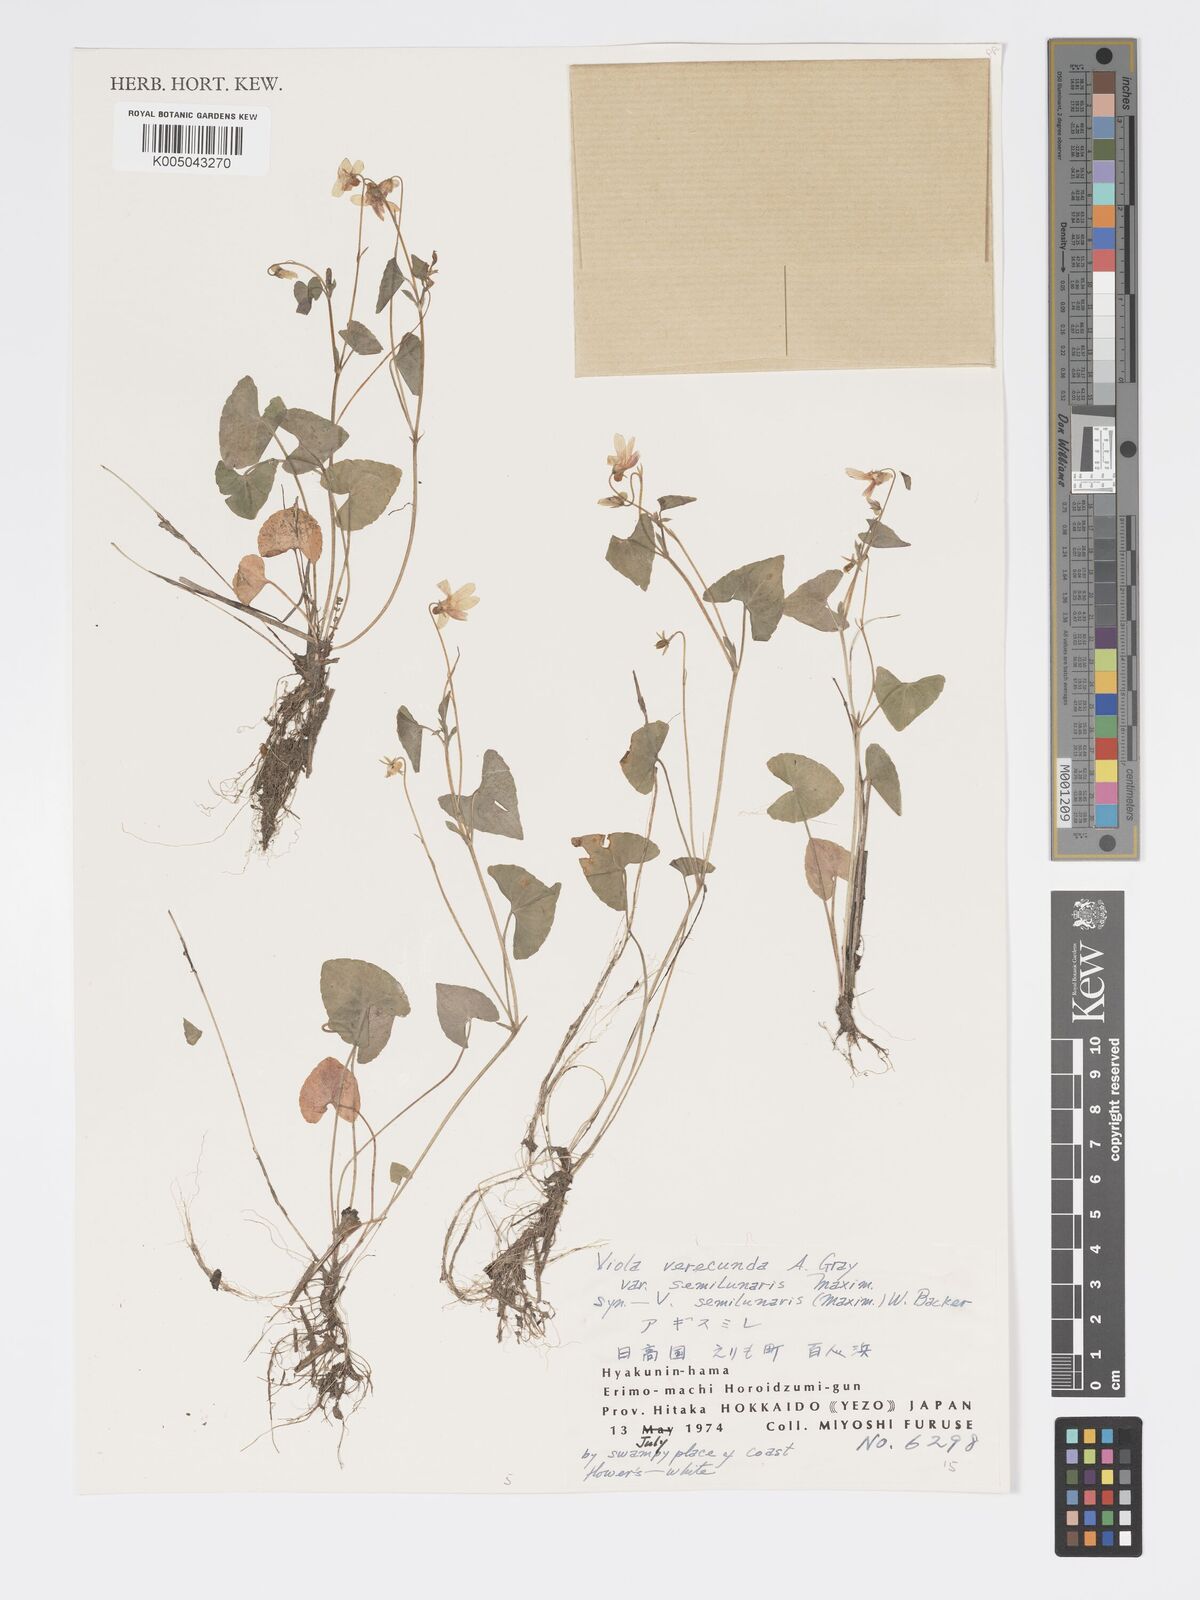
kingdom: Plantae
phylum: Tracheophyta
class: Magnoliopsida
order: Malpighiales
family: Violaceae
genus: Viola
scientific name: Viola hamiltoniana
